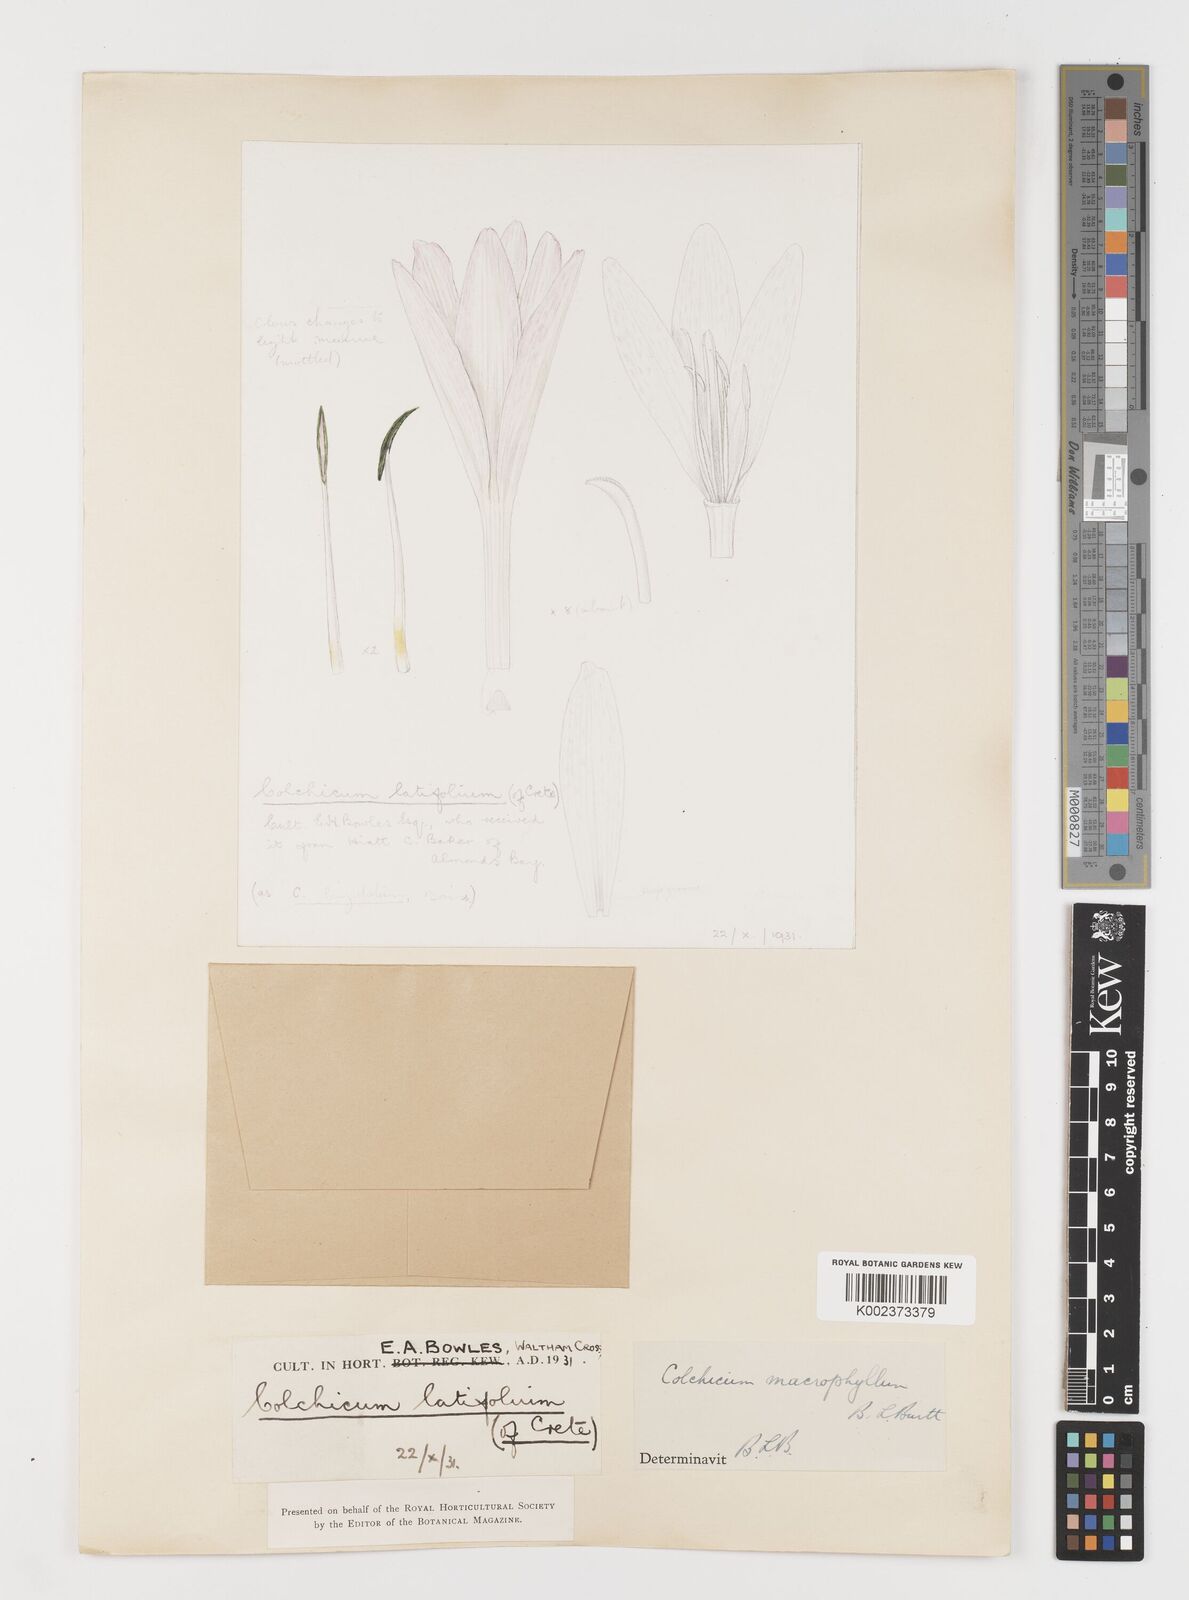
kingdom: Plantae
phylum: Tracheophyta
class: Liliopsida
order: Liliales
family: Colchicaceae
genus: Colchicum
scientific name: Colchicum macrophyllum
